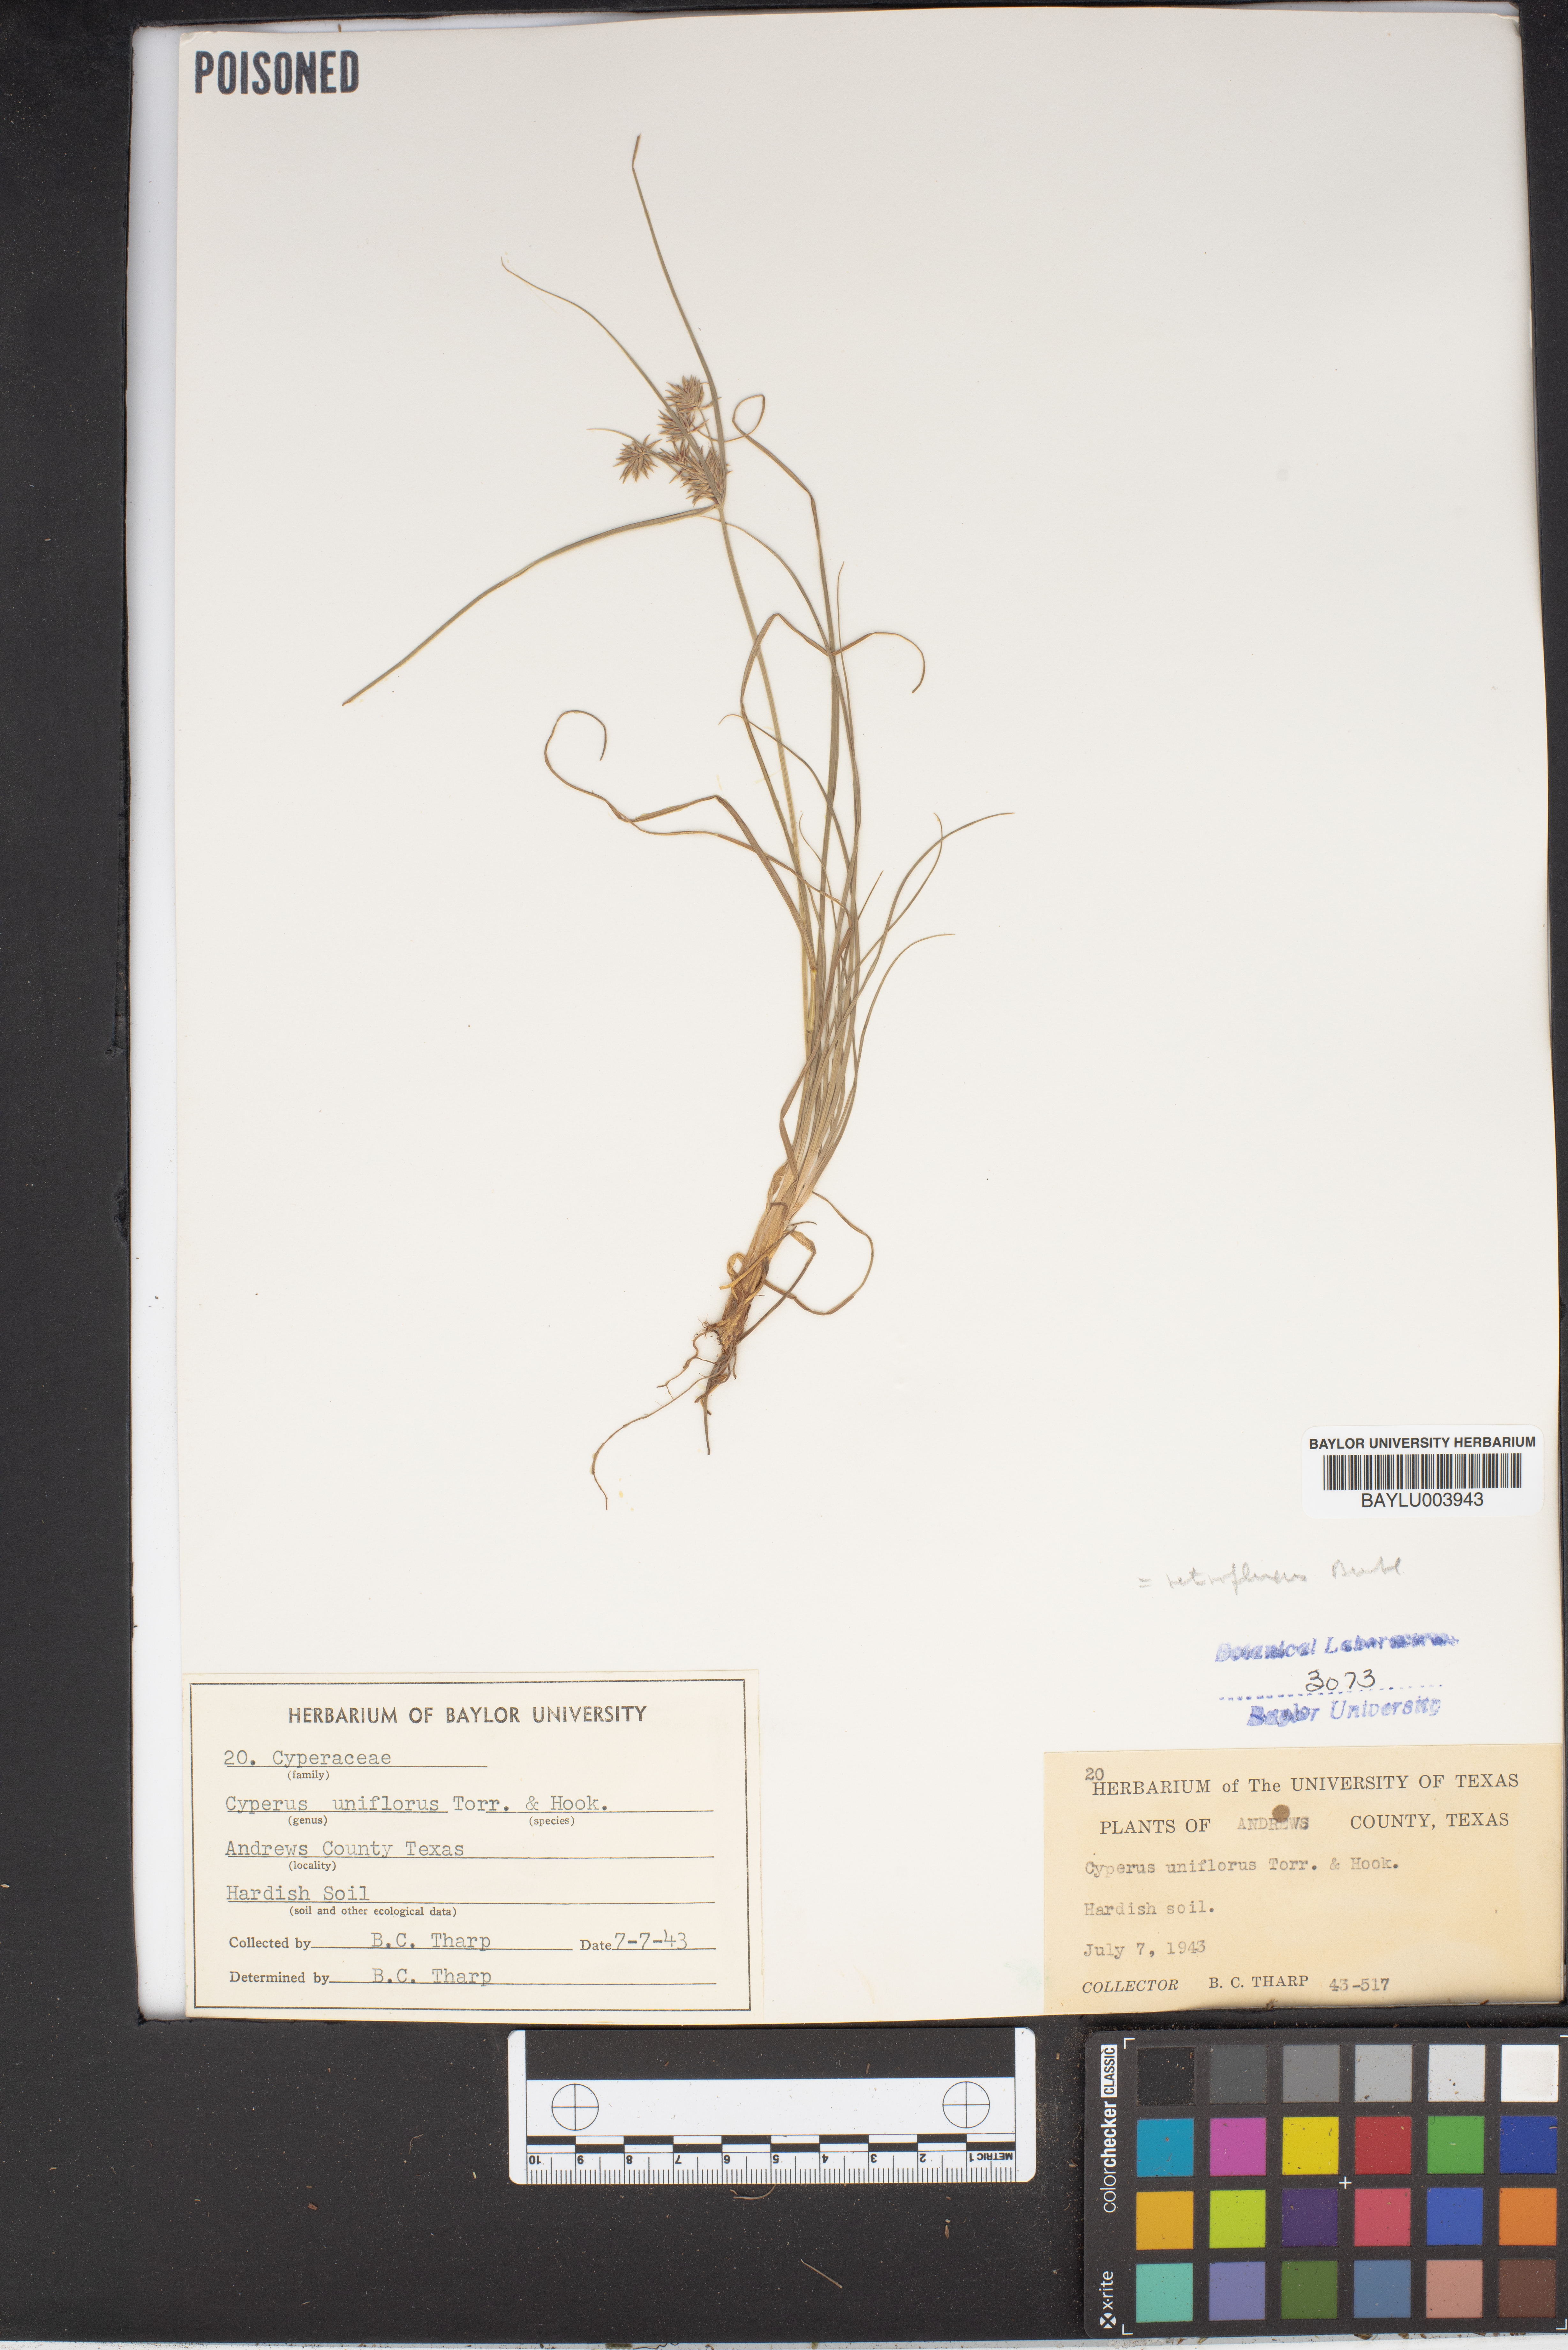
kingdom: Plantae
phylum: Tracheophyta
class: Liliopsida
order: Poales
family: Cyperaceae
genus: Cyperus
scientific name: Cyperus retroflexus
